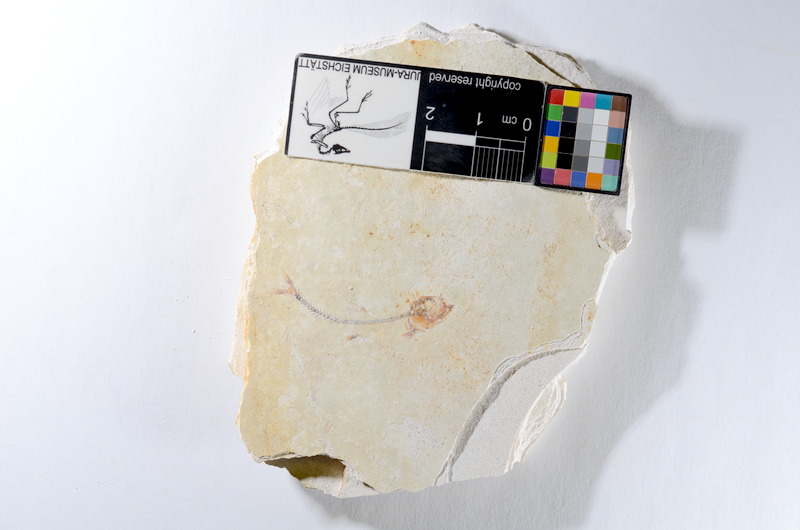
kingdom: Animalia
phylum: Chordata
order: Salmoniformes
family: Orthogonikleithridae
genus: Orthogonikleithrus
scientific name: Orthogonikleithrus hoelli
